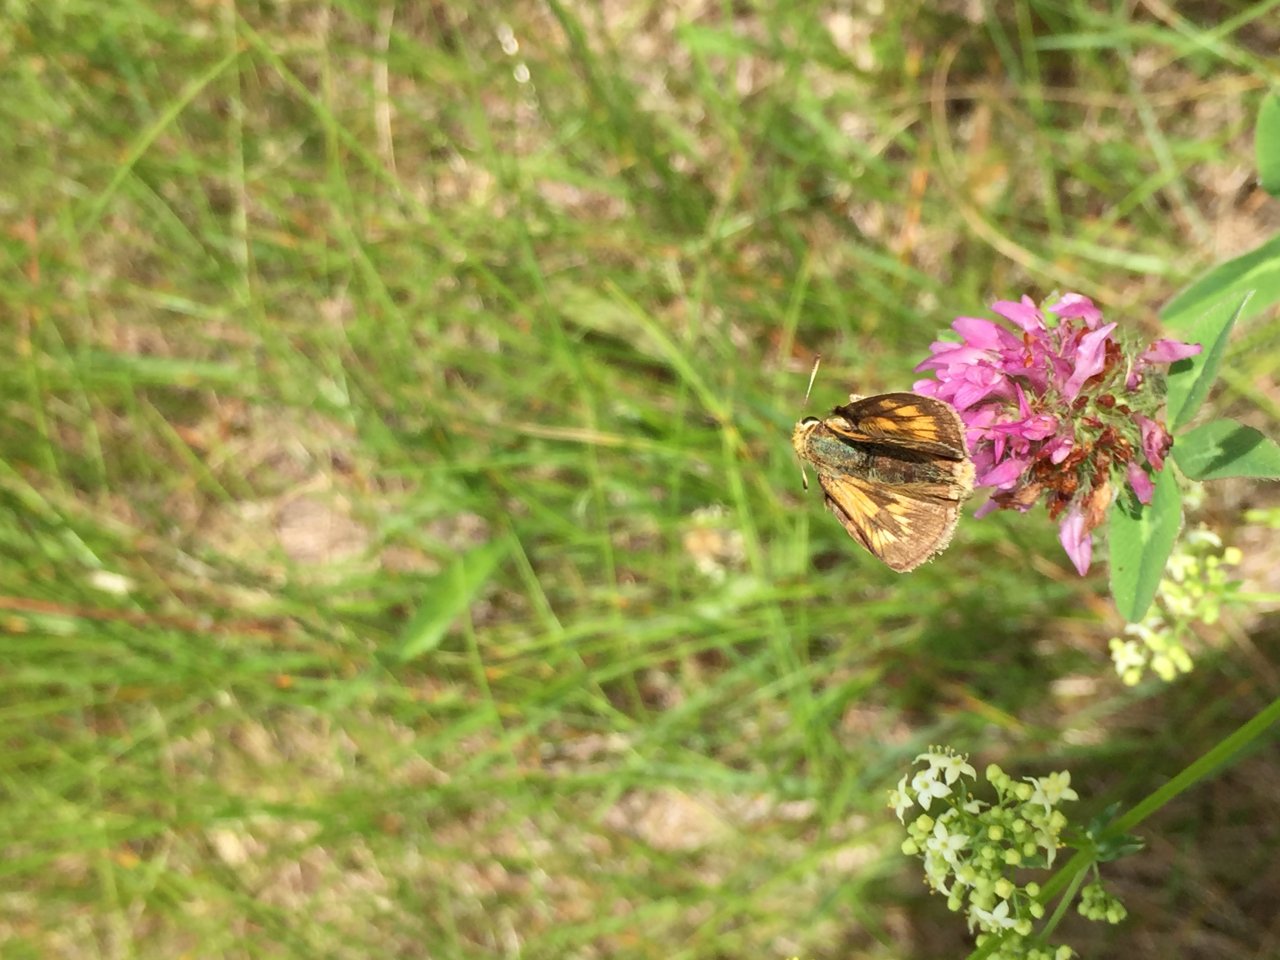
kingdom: Animalia
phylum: Arthropoda
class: Insecta
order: Lepidoptera
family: Hesperiidae
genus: Polites
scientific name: Polites
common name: Long Dash Skipper
